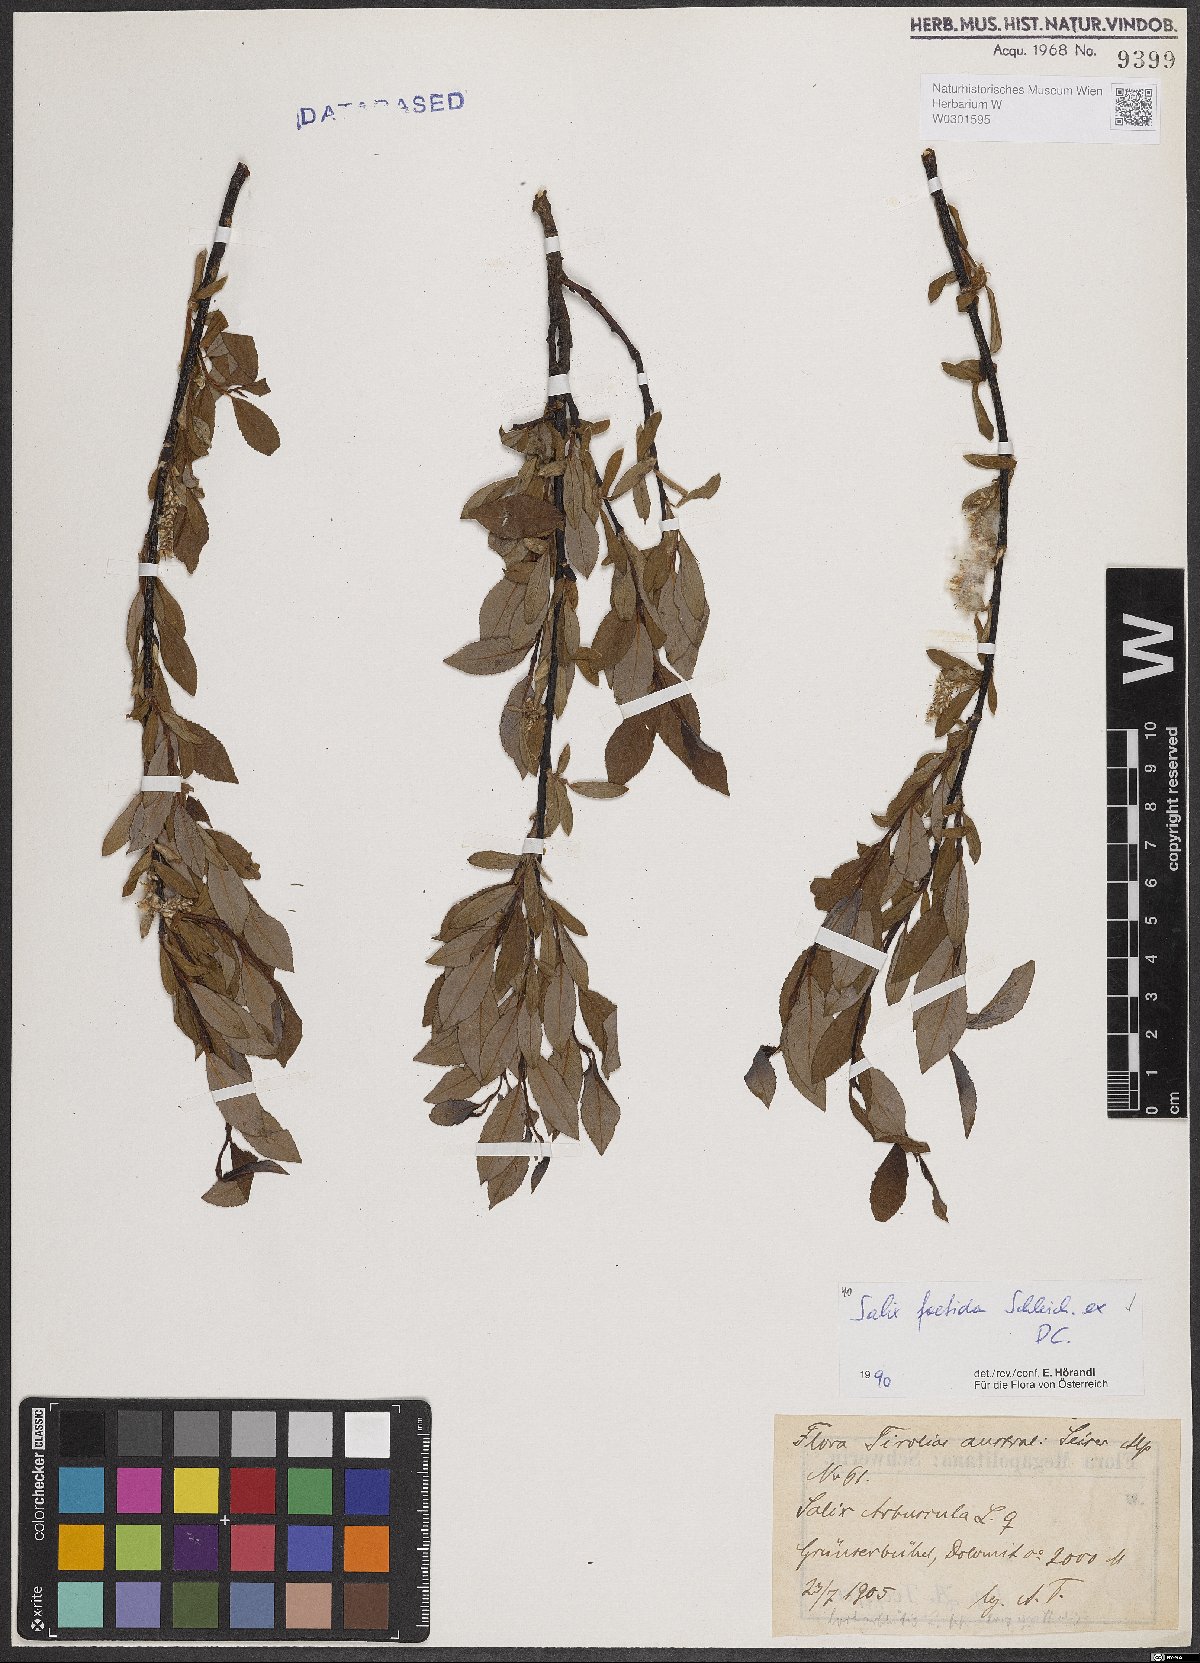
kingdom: Plantae
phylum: Tracheophyta
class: Magnoliopsida
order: Malpighiales
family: Salicaceae
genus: Salix
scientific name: Salix foetida
